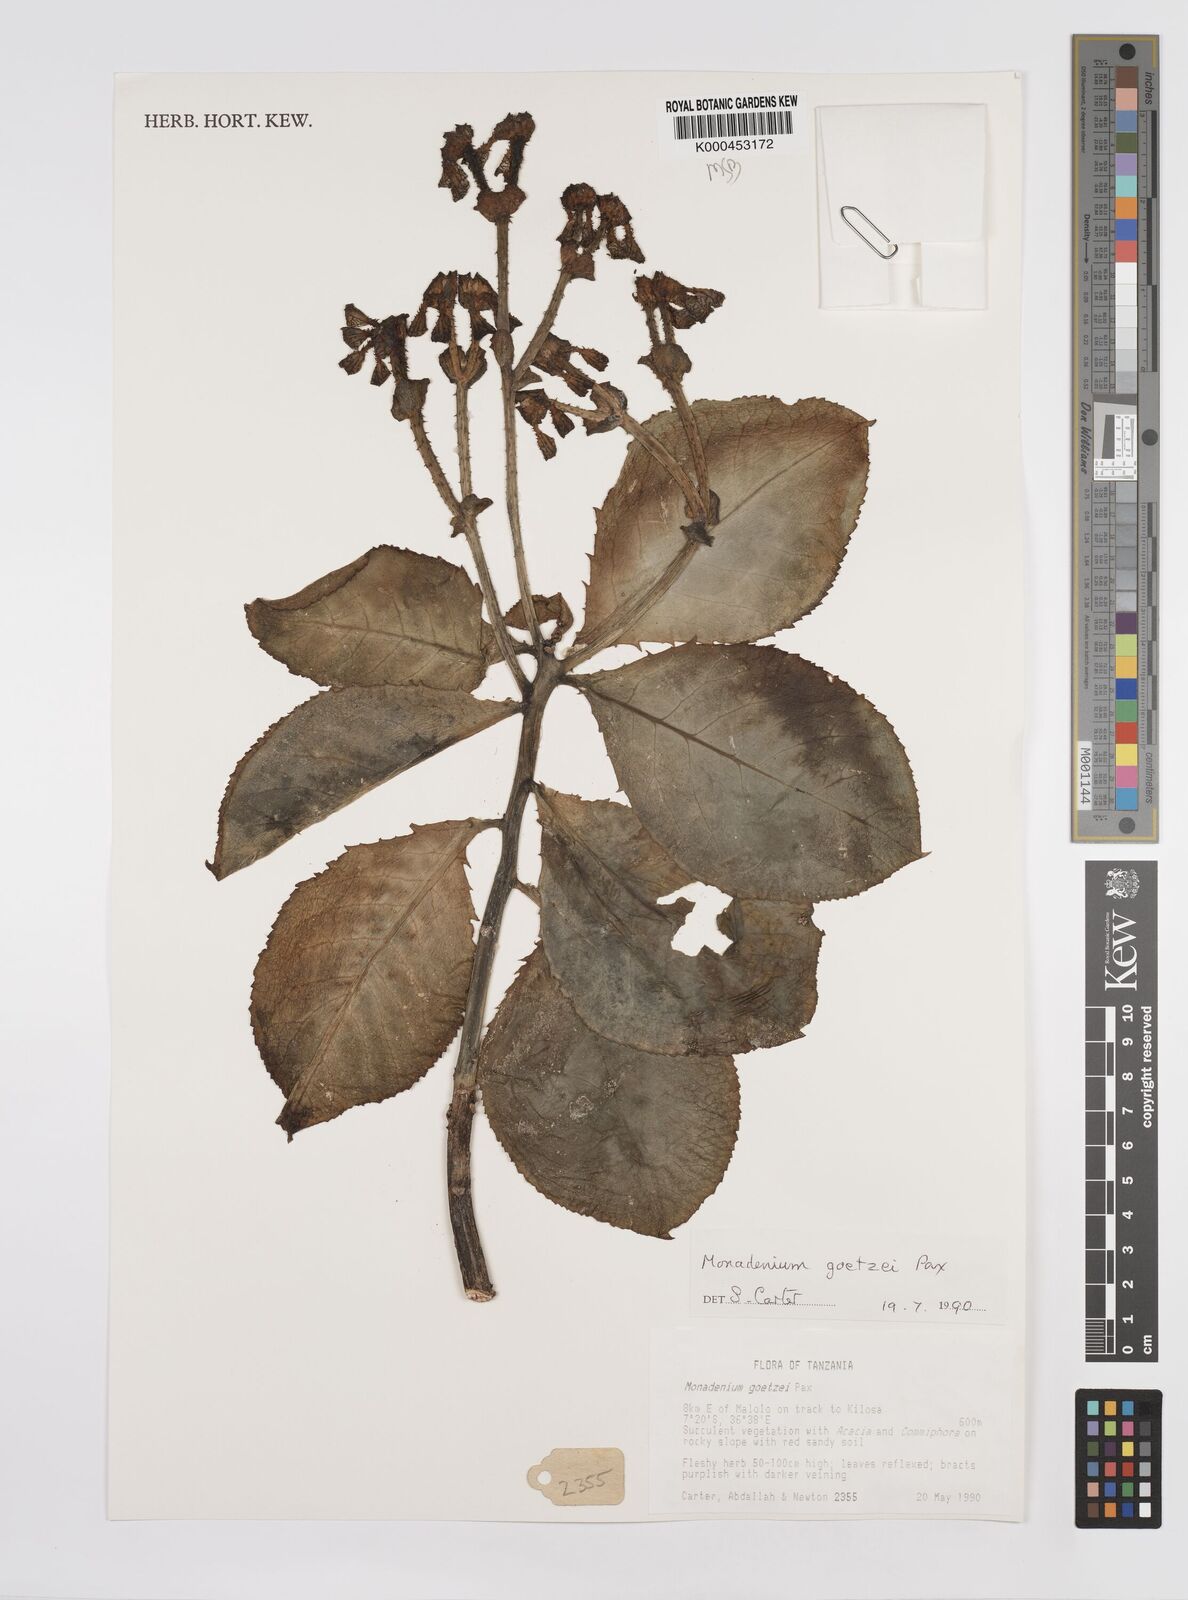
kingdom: Plantae
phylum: Tracheophyta
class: Magnoliopsida
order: Malpighiales
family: Euphorbiaceae
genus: Euphorbia
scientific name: Euphorbia neogoetzei
